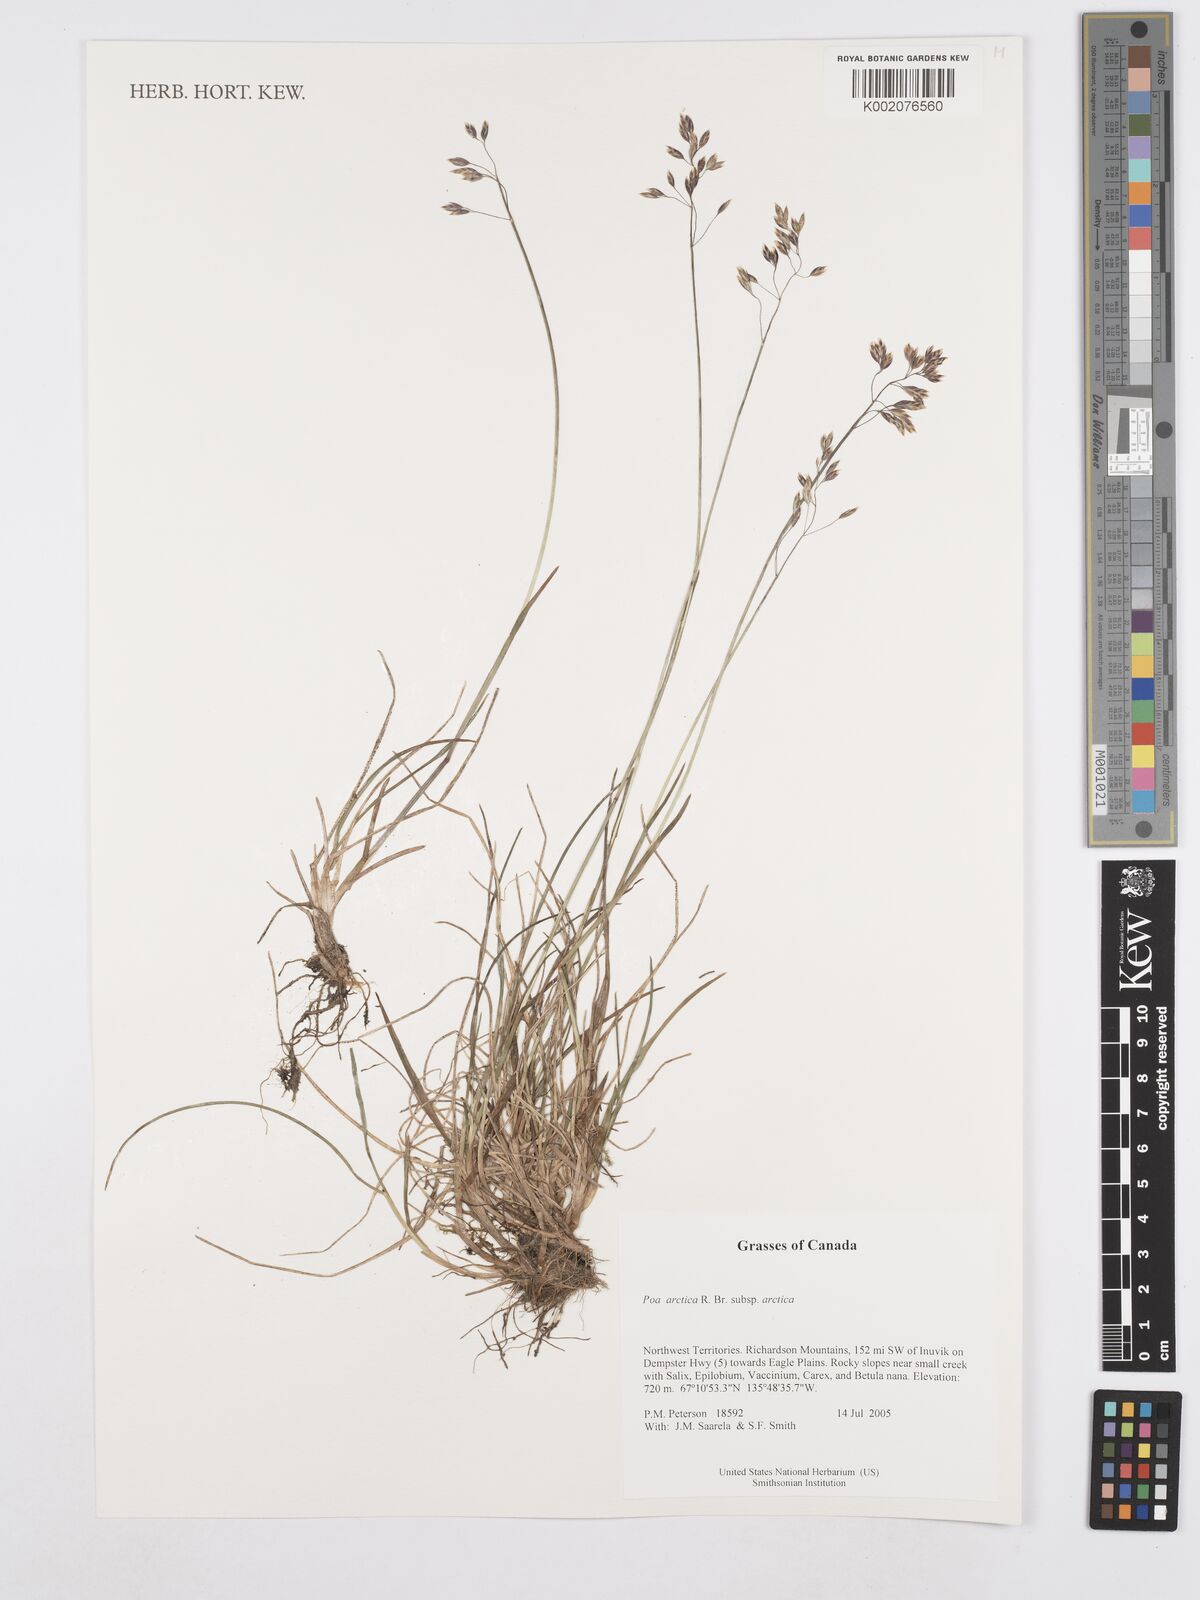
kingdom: Plantae
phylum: Tracheophyta
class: Liliopsida
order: Poales
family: Poaceae
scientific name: Poaceae
